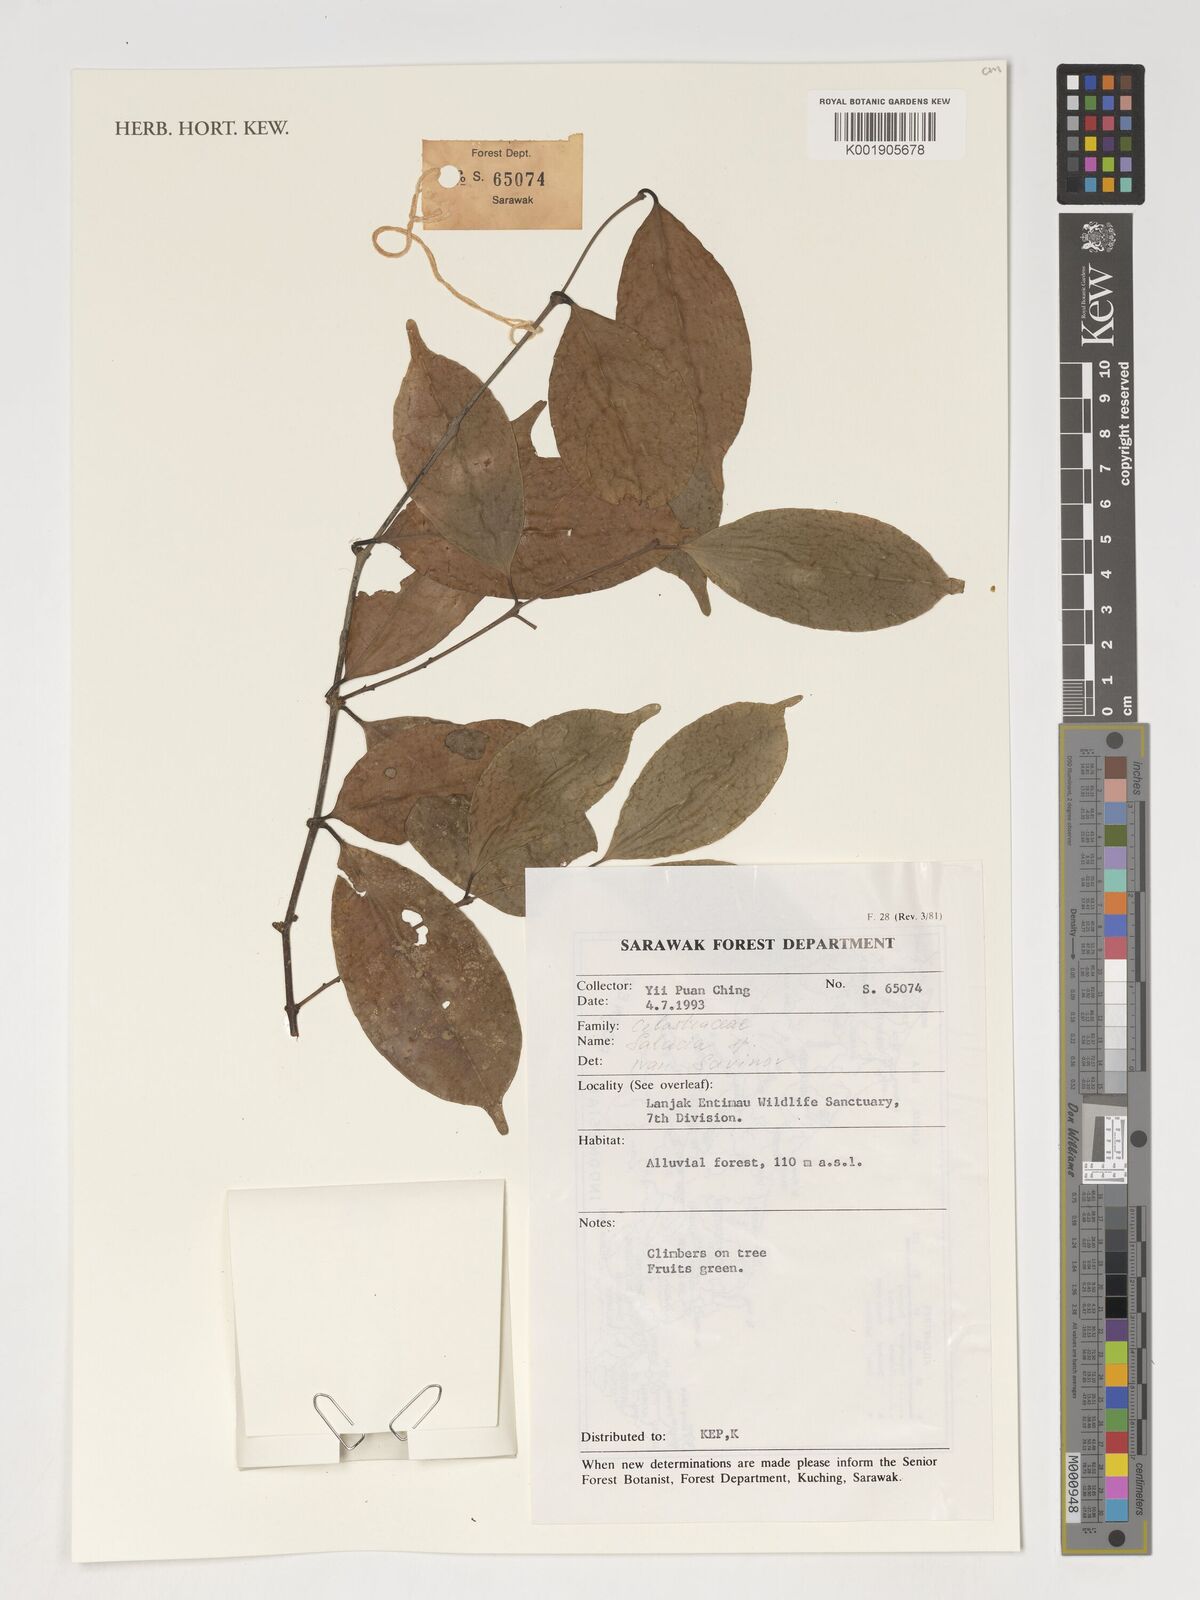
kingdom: Plantae
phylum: Tracheophyta
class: Magnoliopsida
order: Celastrales
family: Celastraceae
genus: Salacia
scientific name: Salacia
